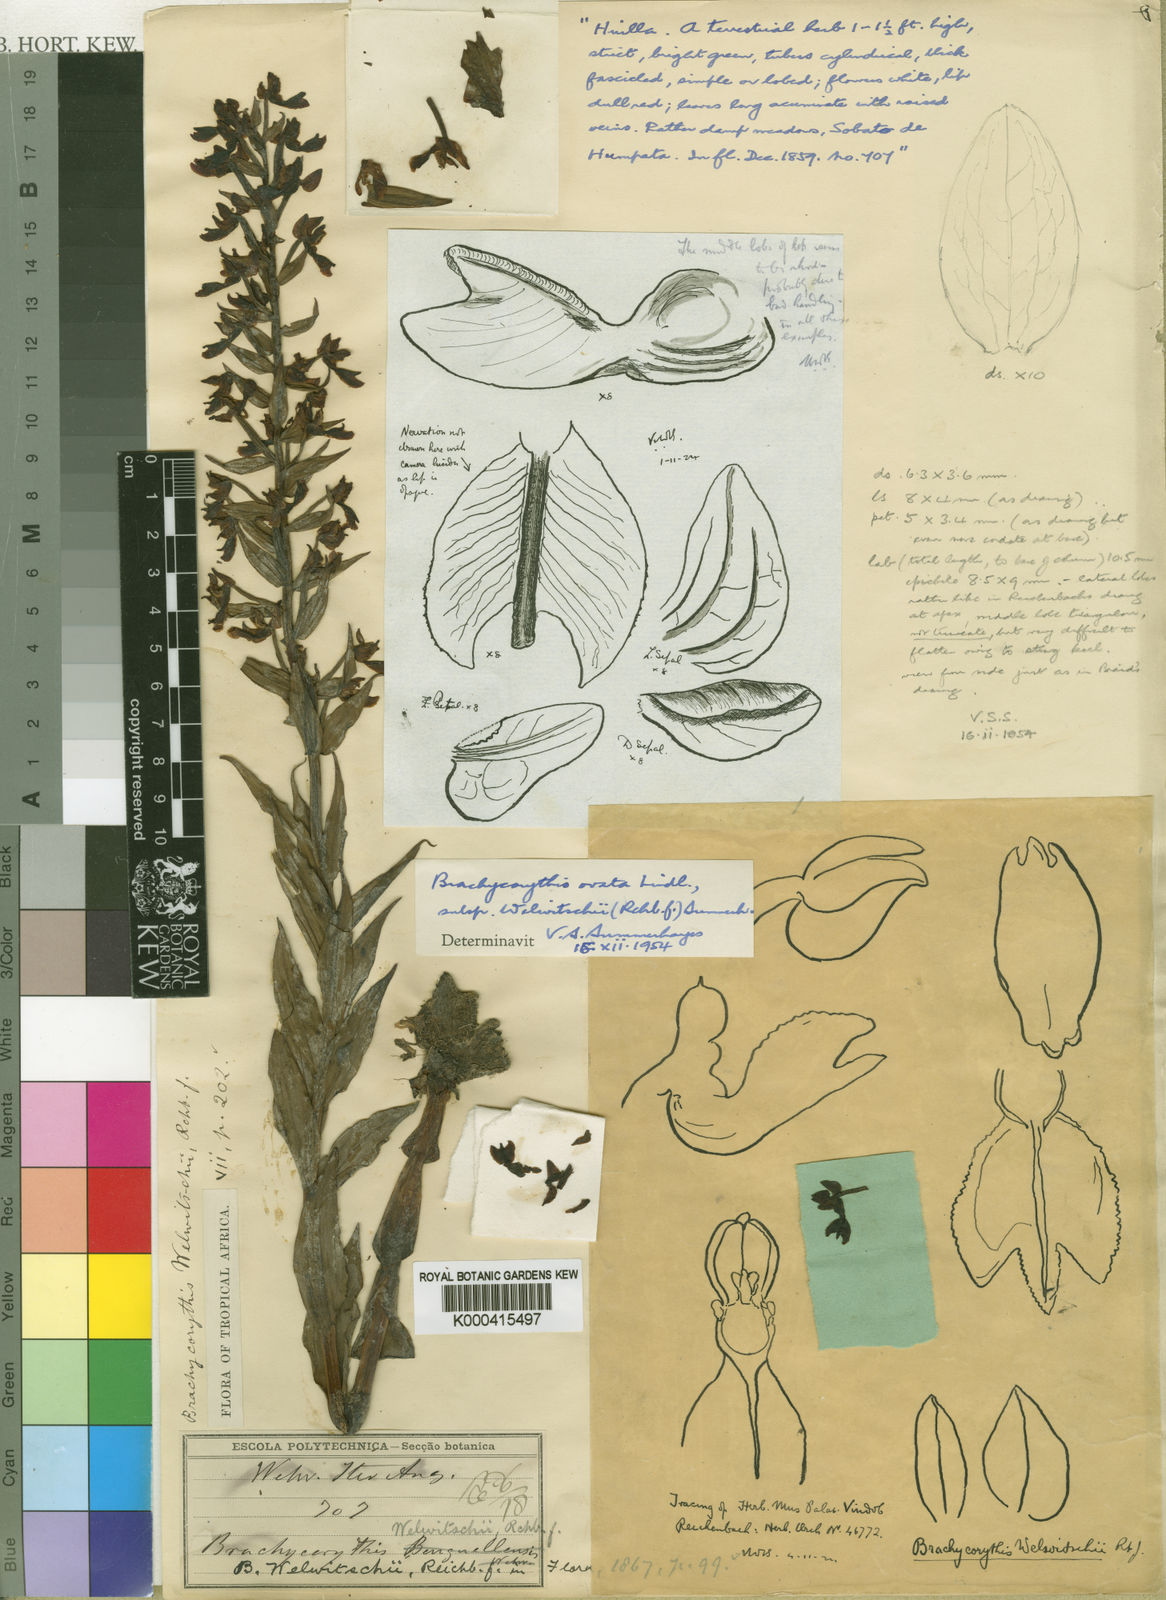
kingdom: Plantae
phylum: Tracheophyta
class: Liliopsida
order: Asparagales
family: Orchidaceae
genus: Brachycorythis
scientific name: Brachycorythis ovata
